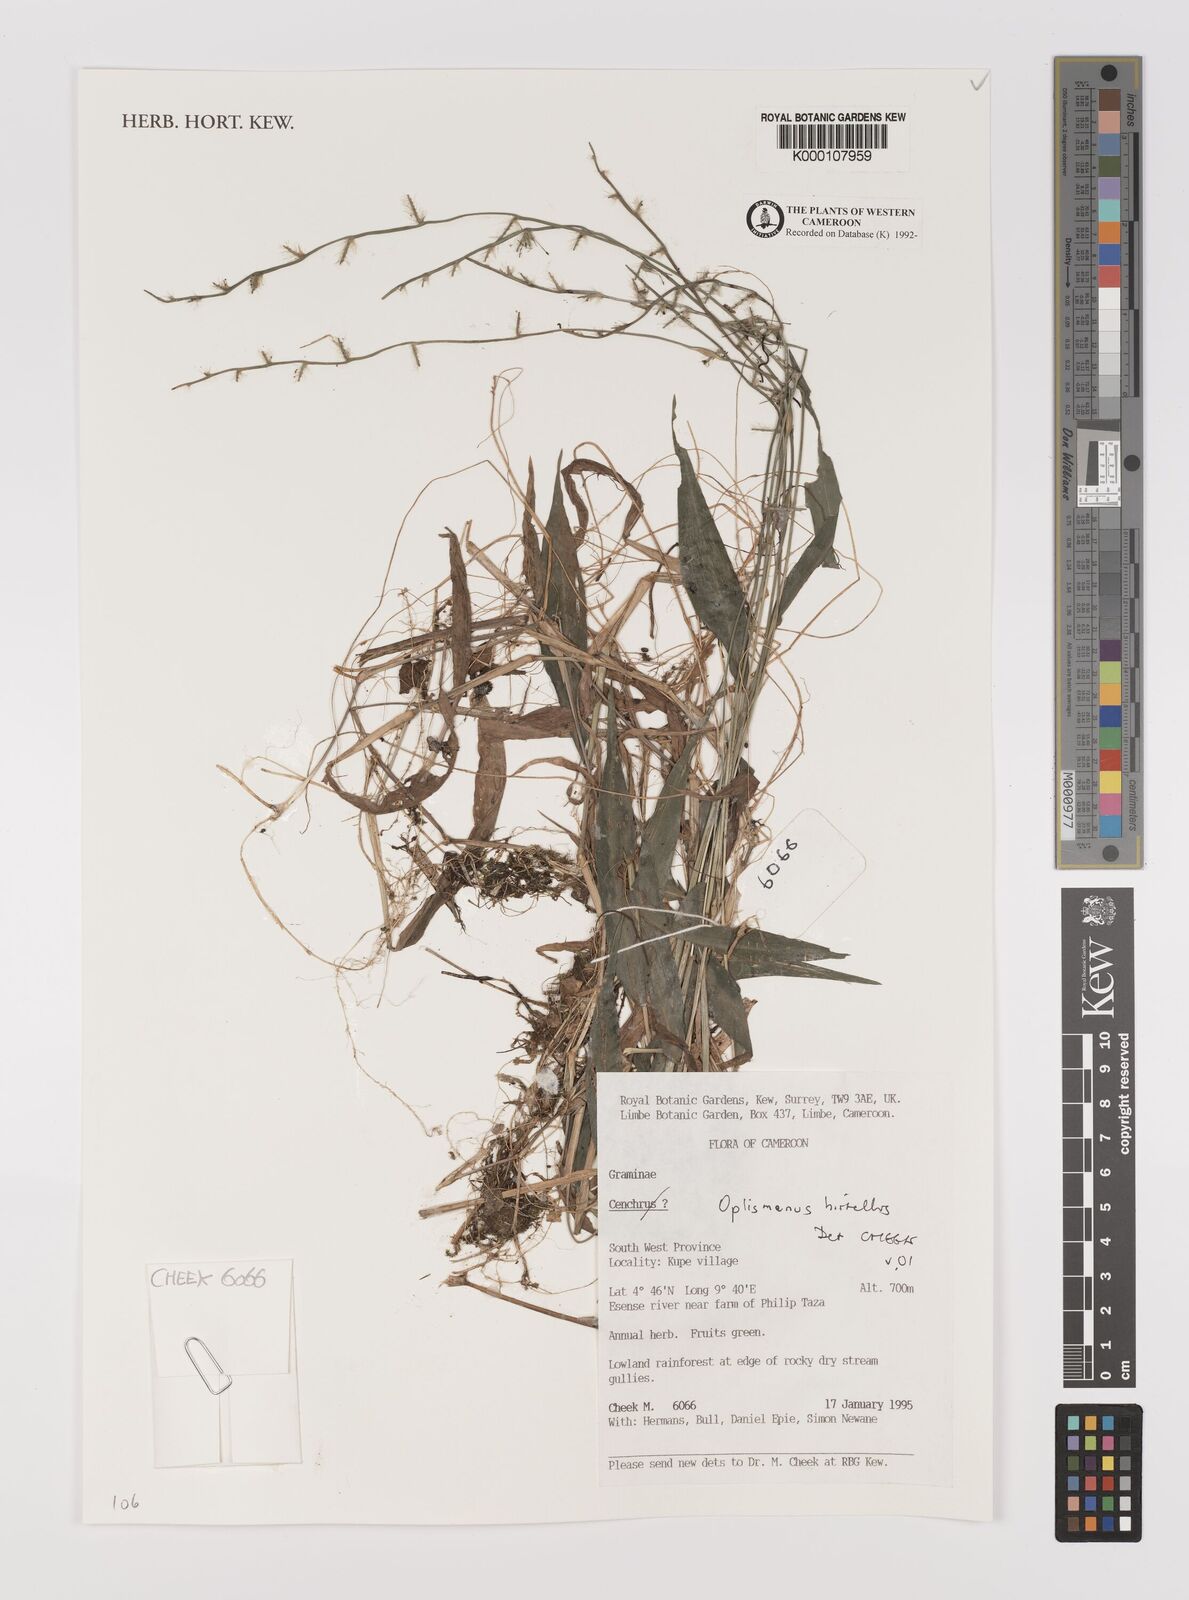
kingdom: Plantae
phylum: Tracheophyta
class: Liliopsida
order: Poales
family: Poaceae
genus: Oplismenus
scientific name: Oplismenus hirtellus
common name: Basketgrass
